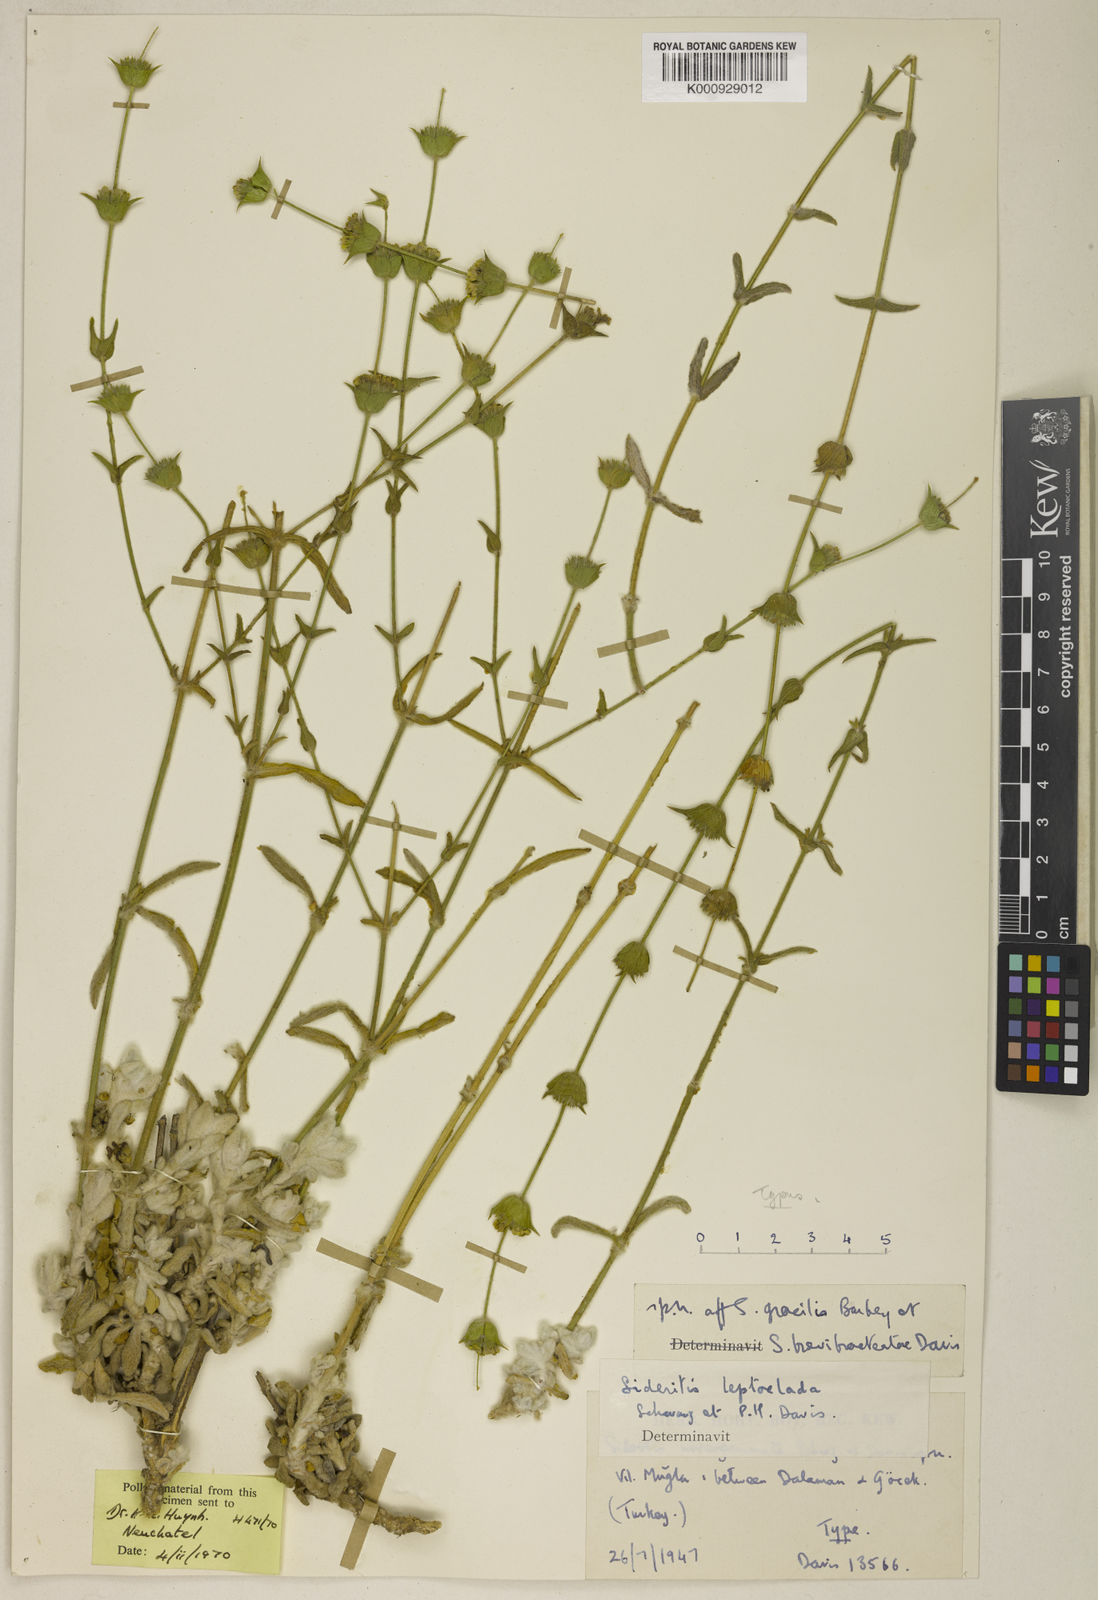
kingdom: Plantae
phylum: Tracheophyta
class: Magnoliopsida
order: Lamiales
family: Lamiaceae
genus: Sideritis
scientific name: Sideritis leptoclada
